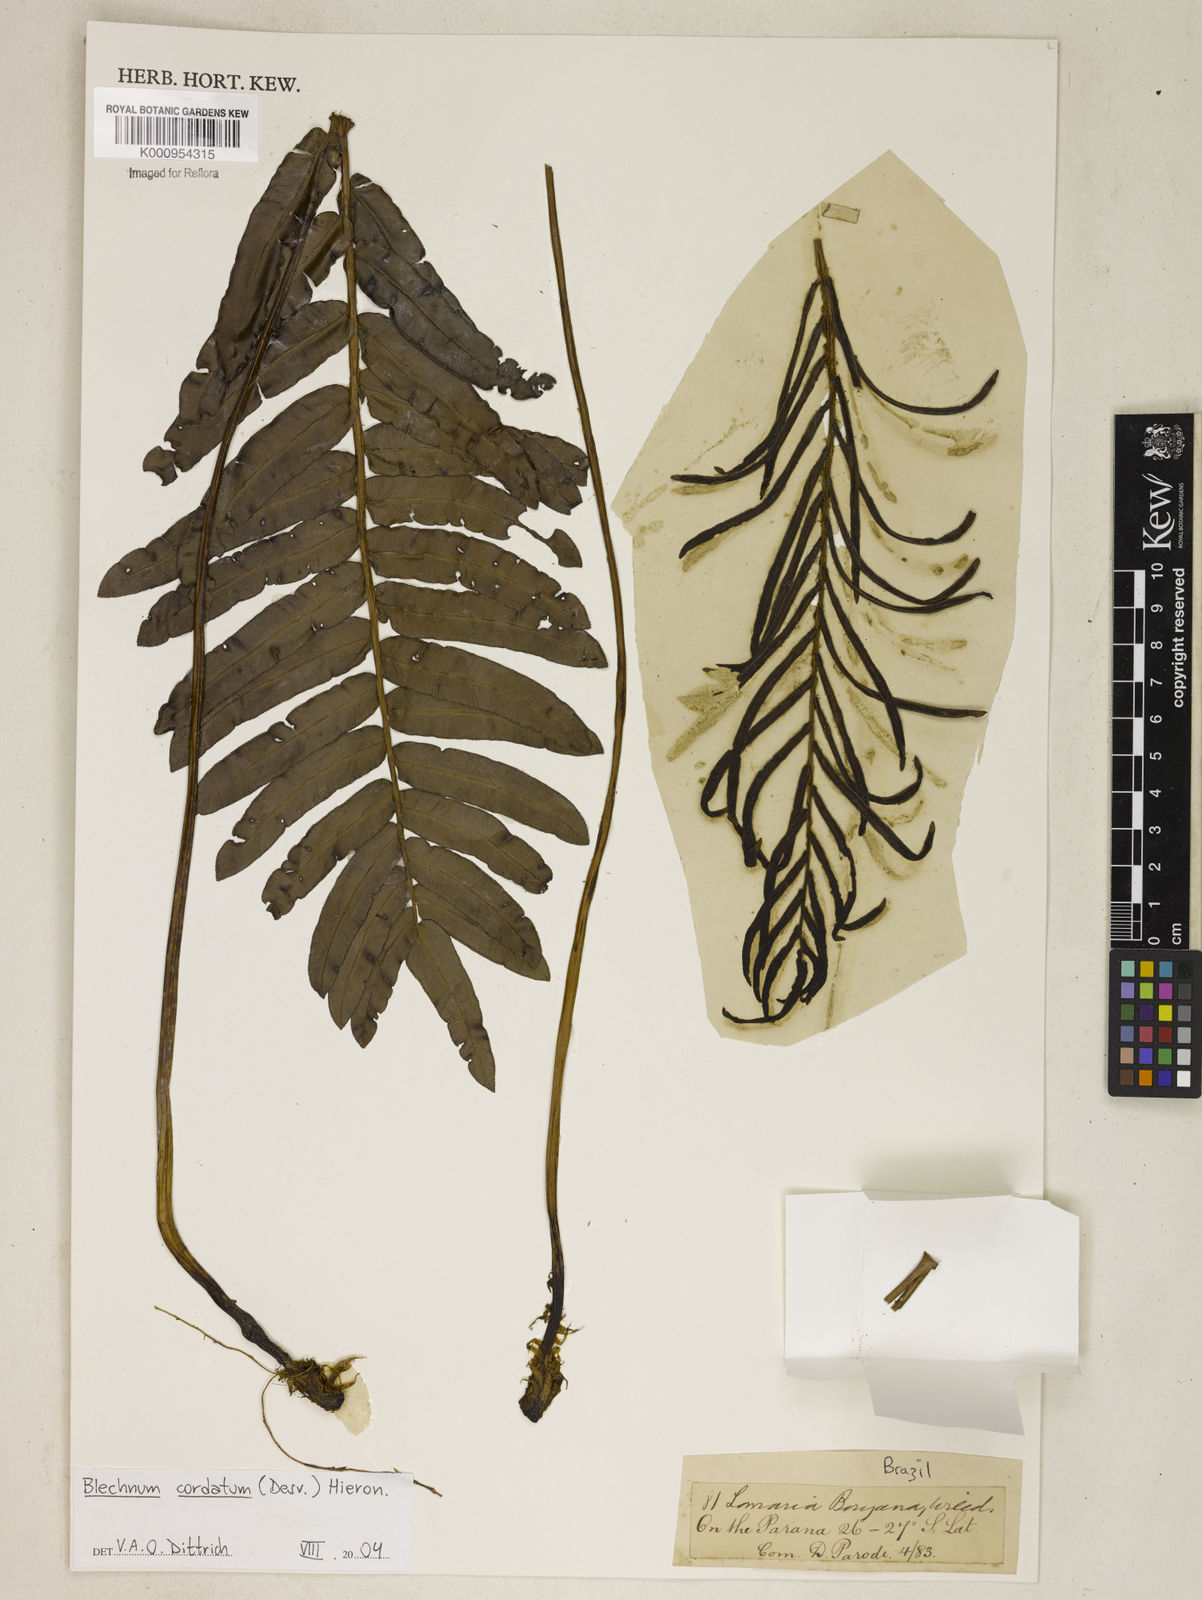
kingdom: Plantae
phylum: Tracheophyta
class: Polypodiopsida
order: Polypodiales
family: Blechnaceae
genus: Parablechnum
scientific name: Parablechnum cordatum
